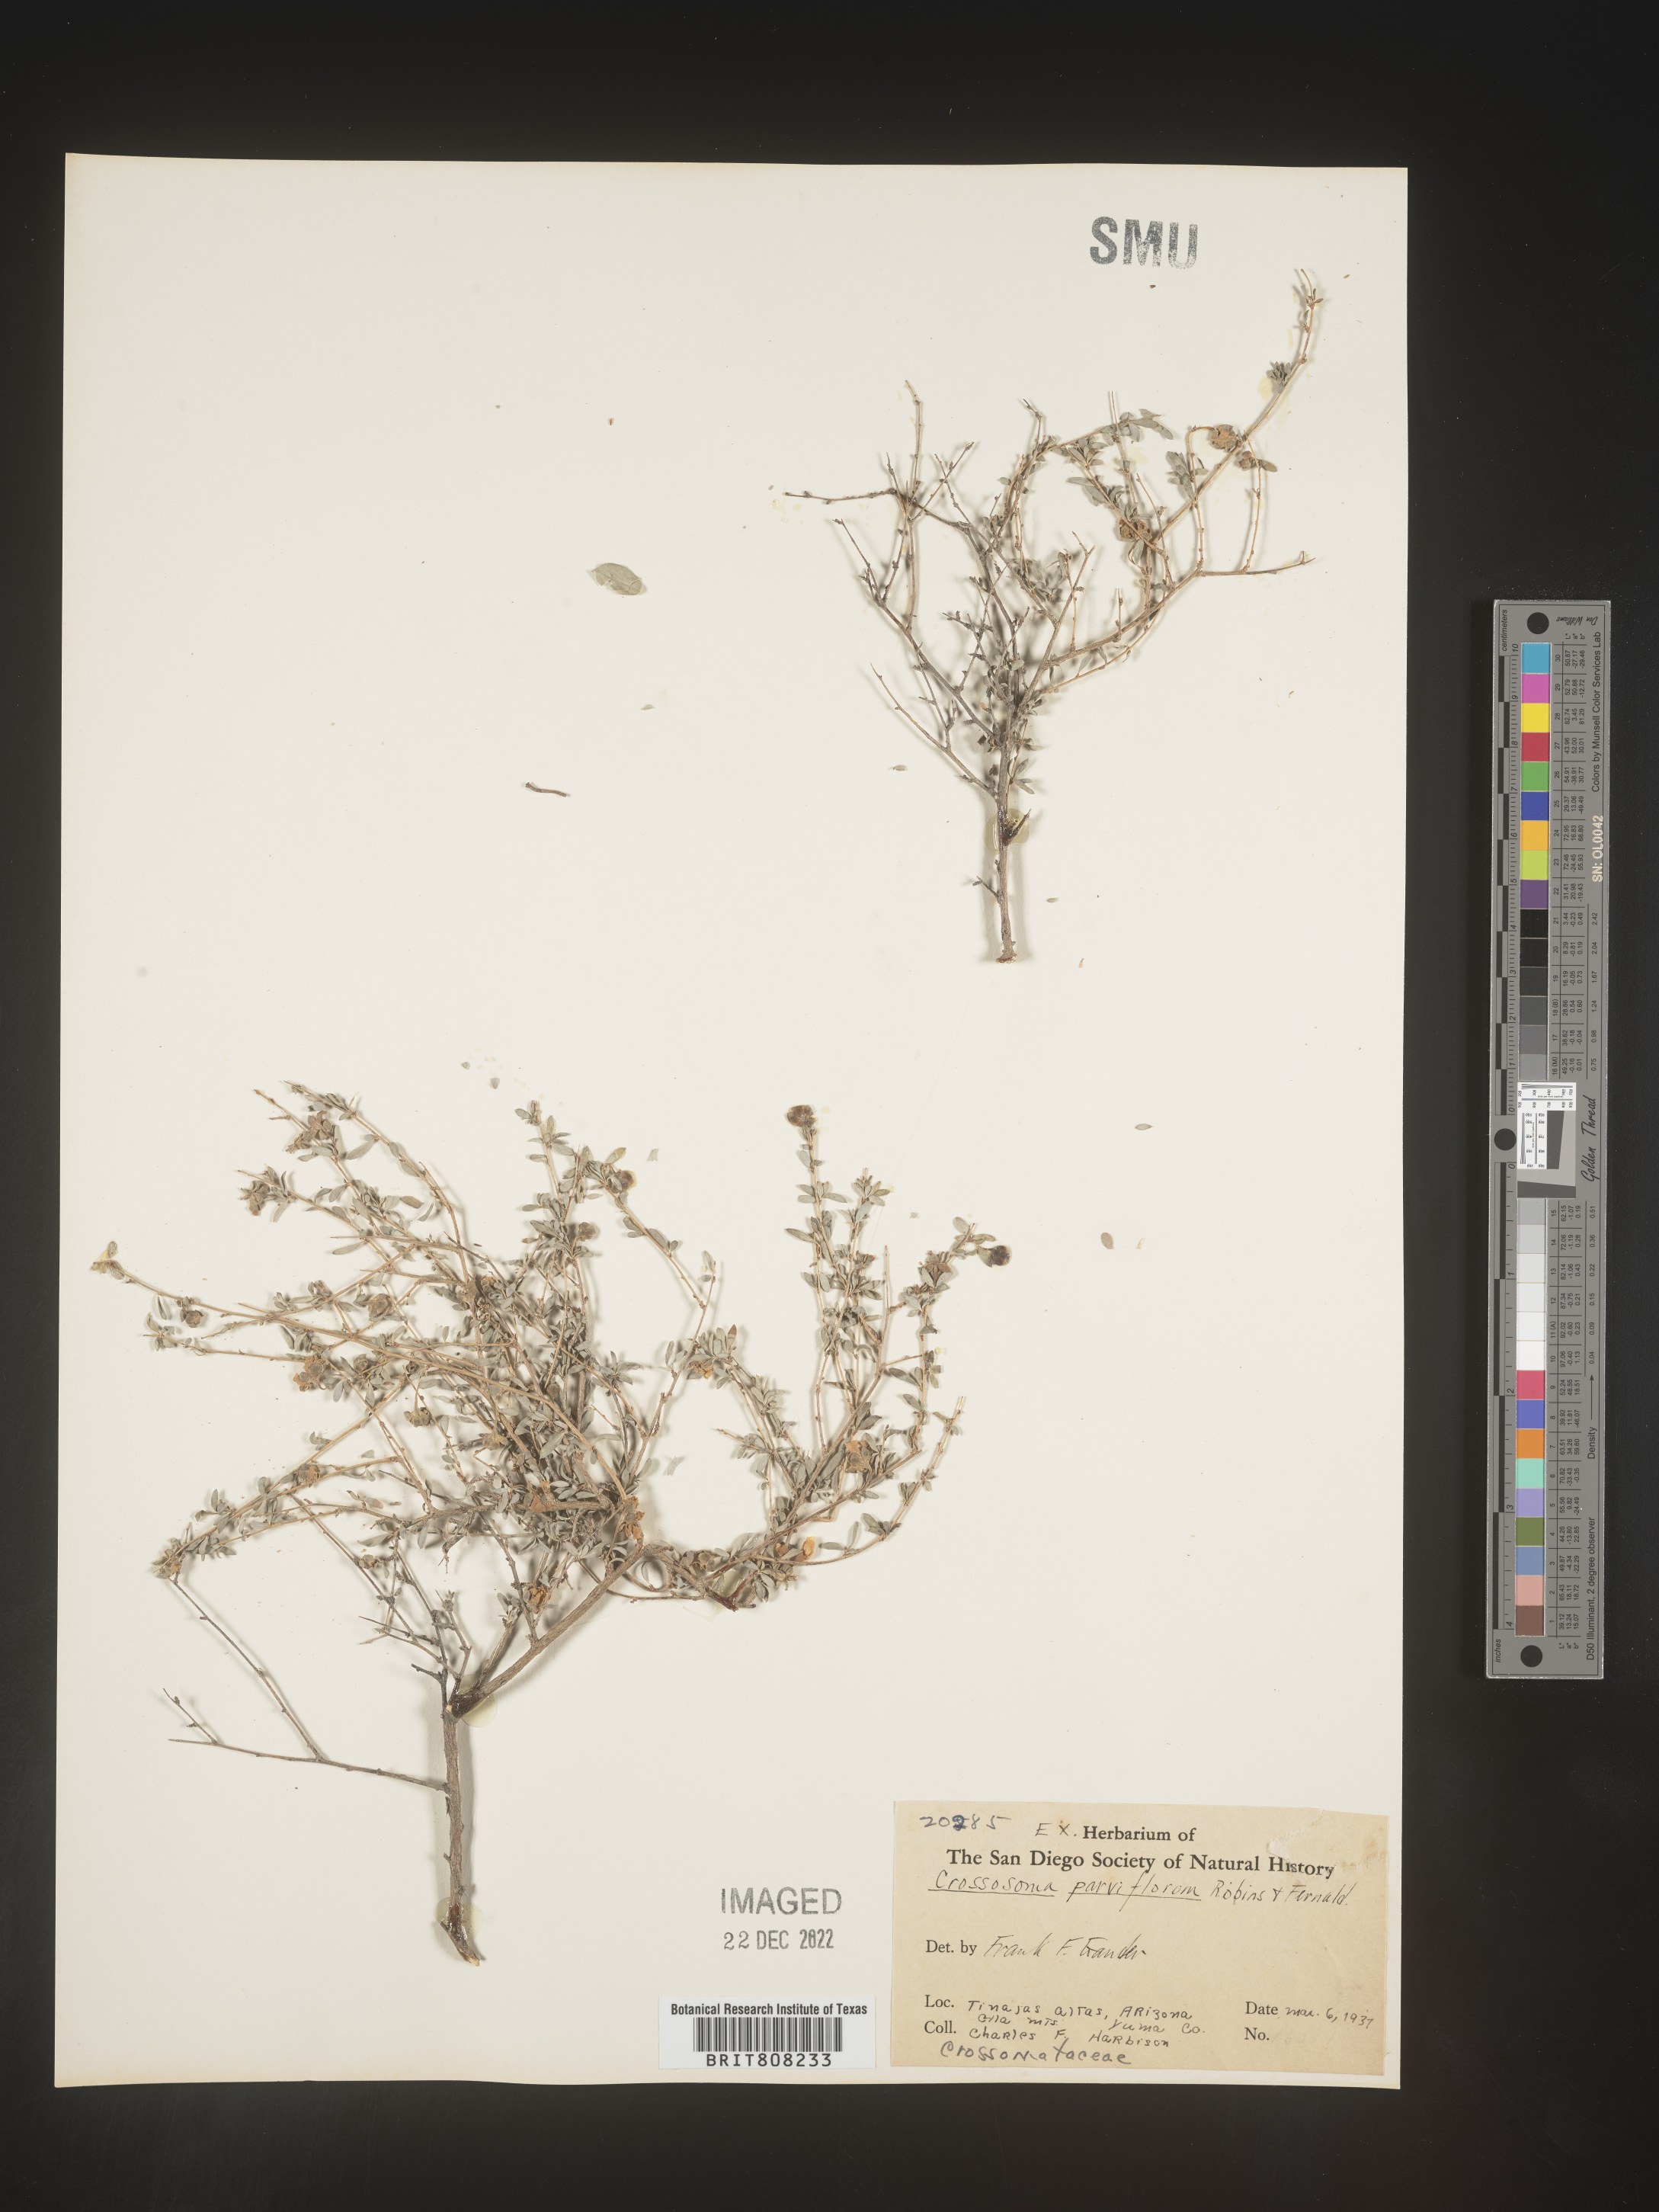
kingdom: Plantae
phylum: Tracheophyta
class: Magnoliopsida
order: Crossosomatales
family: Crossosomataceae
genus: Crossosoma
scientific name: Crossosoma californicum
